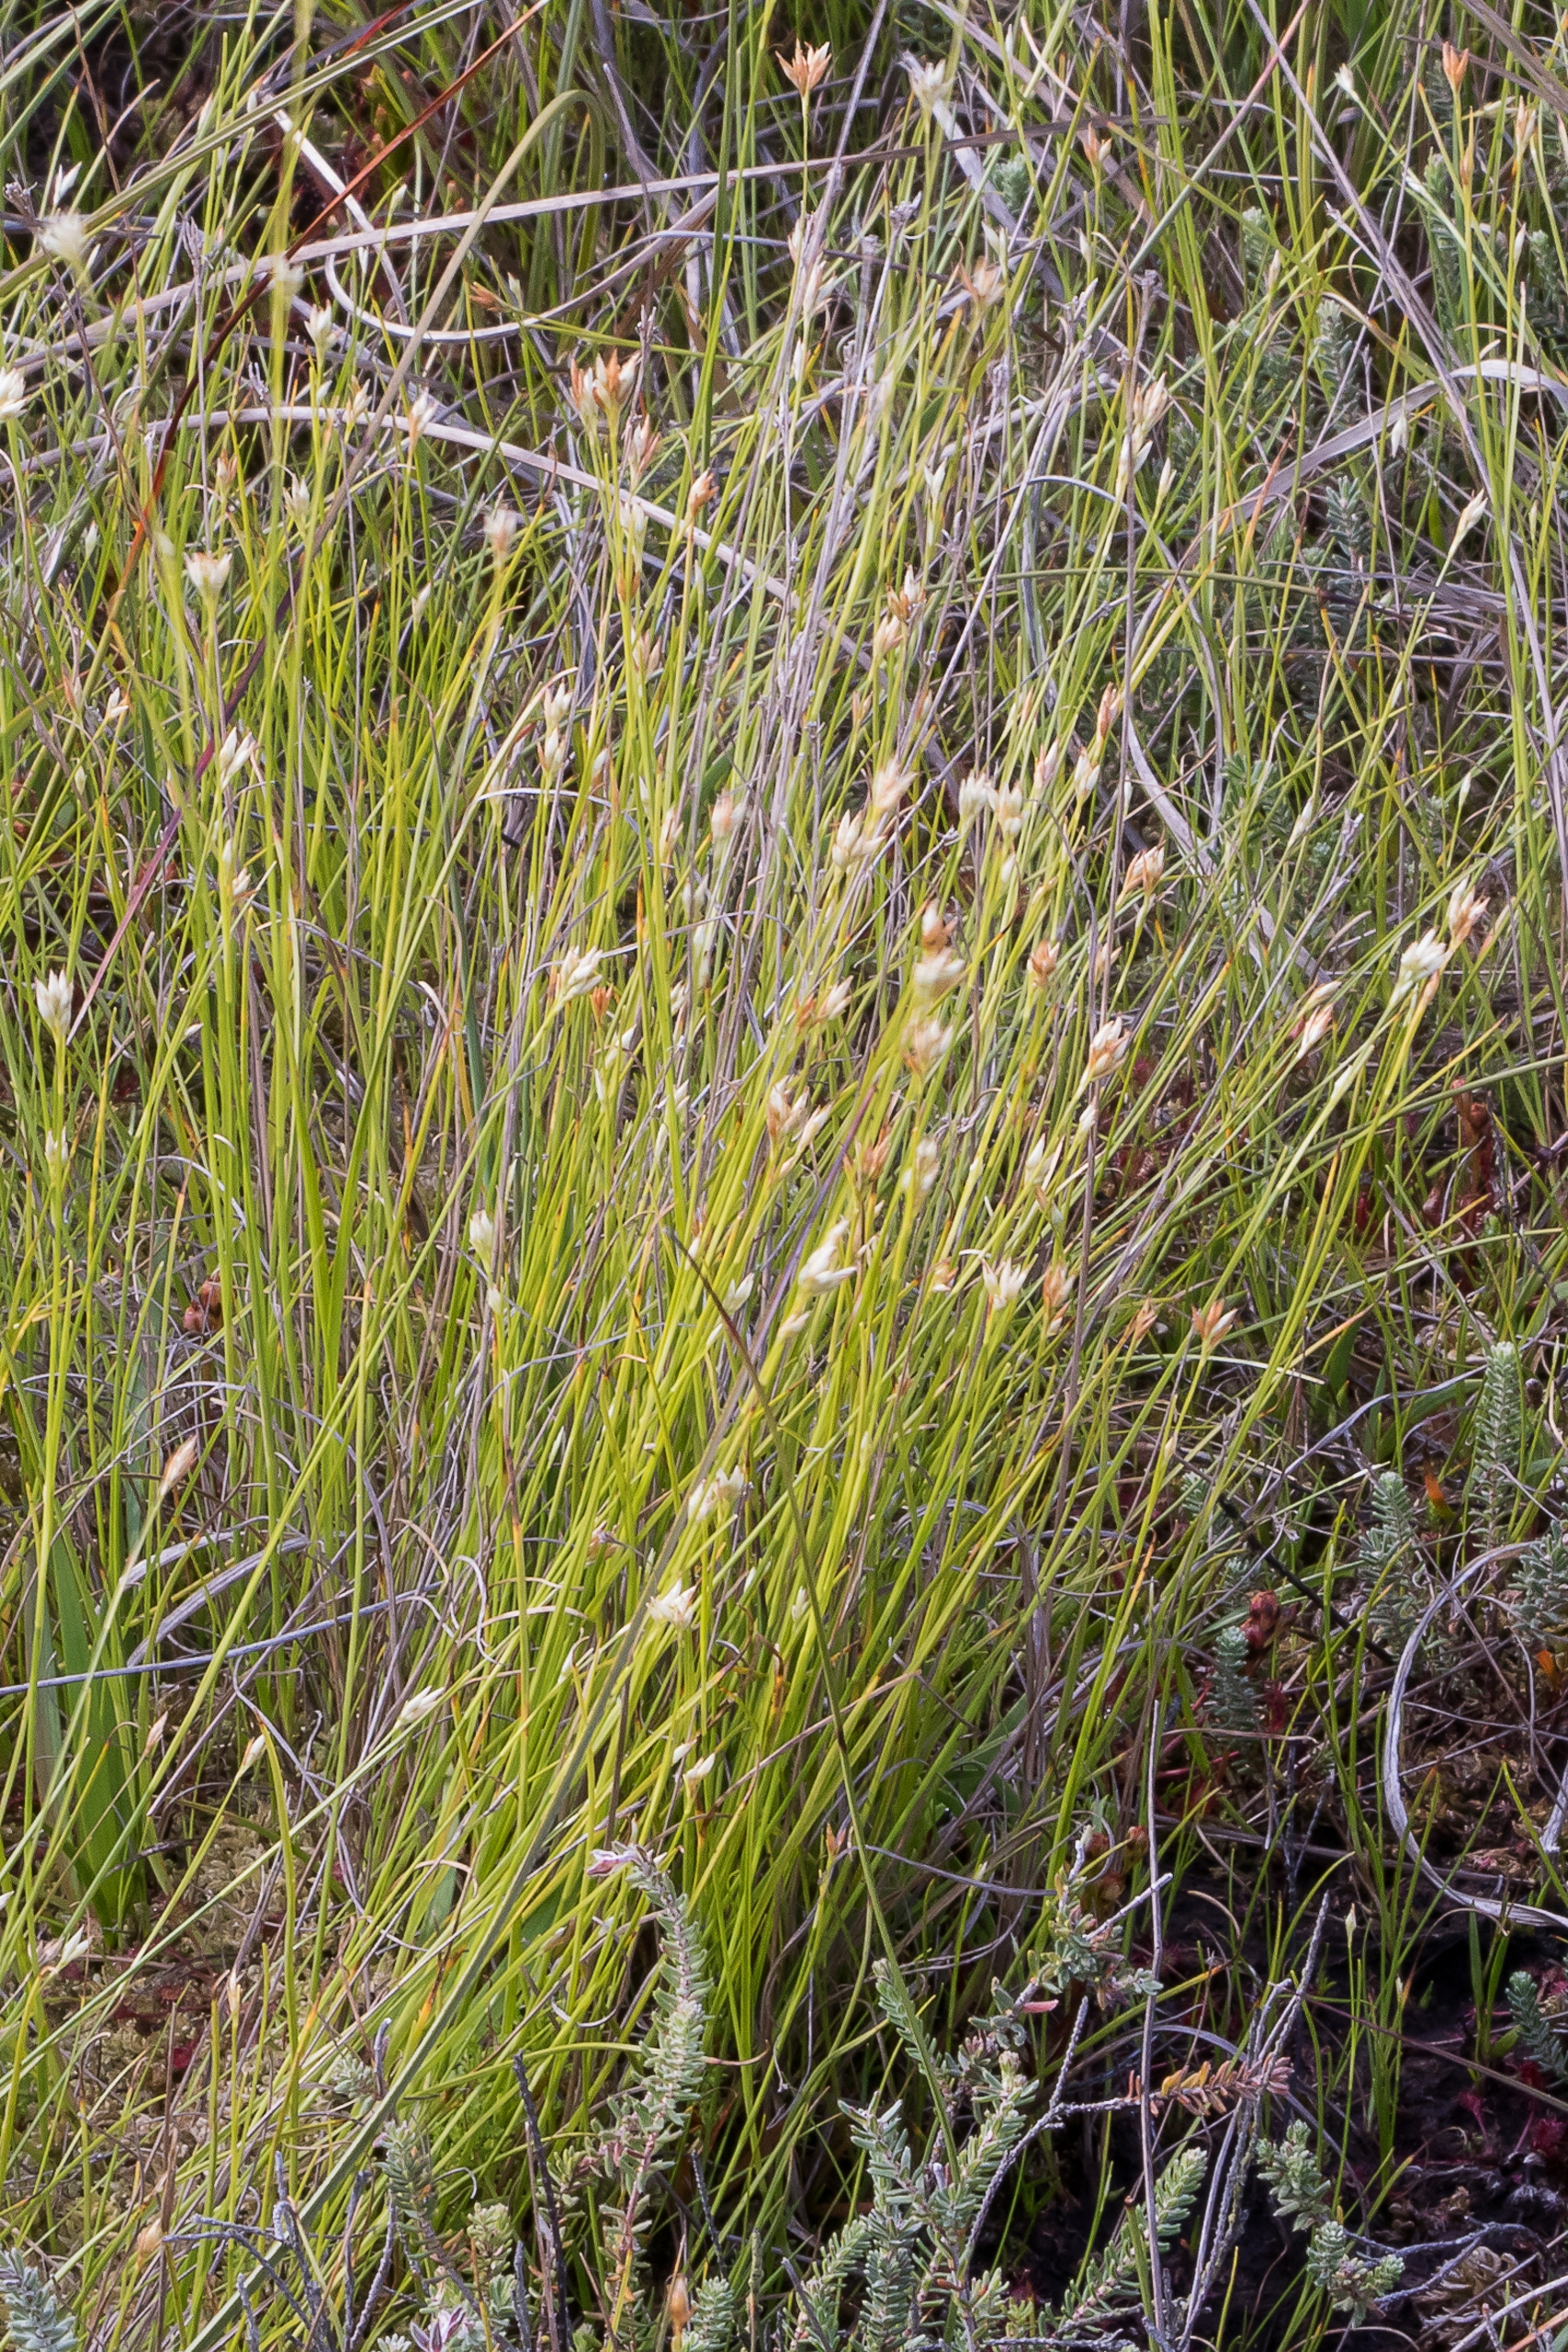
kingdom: Plantae
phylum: Tracheophyta
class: Liliopsida
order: Poales
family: Cyperaceae
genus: Rhynchospora
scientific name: Rhynchospora alba
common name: Hvid næbfrø
